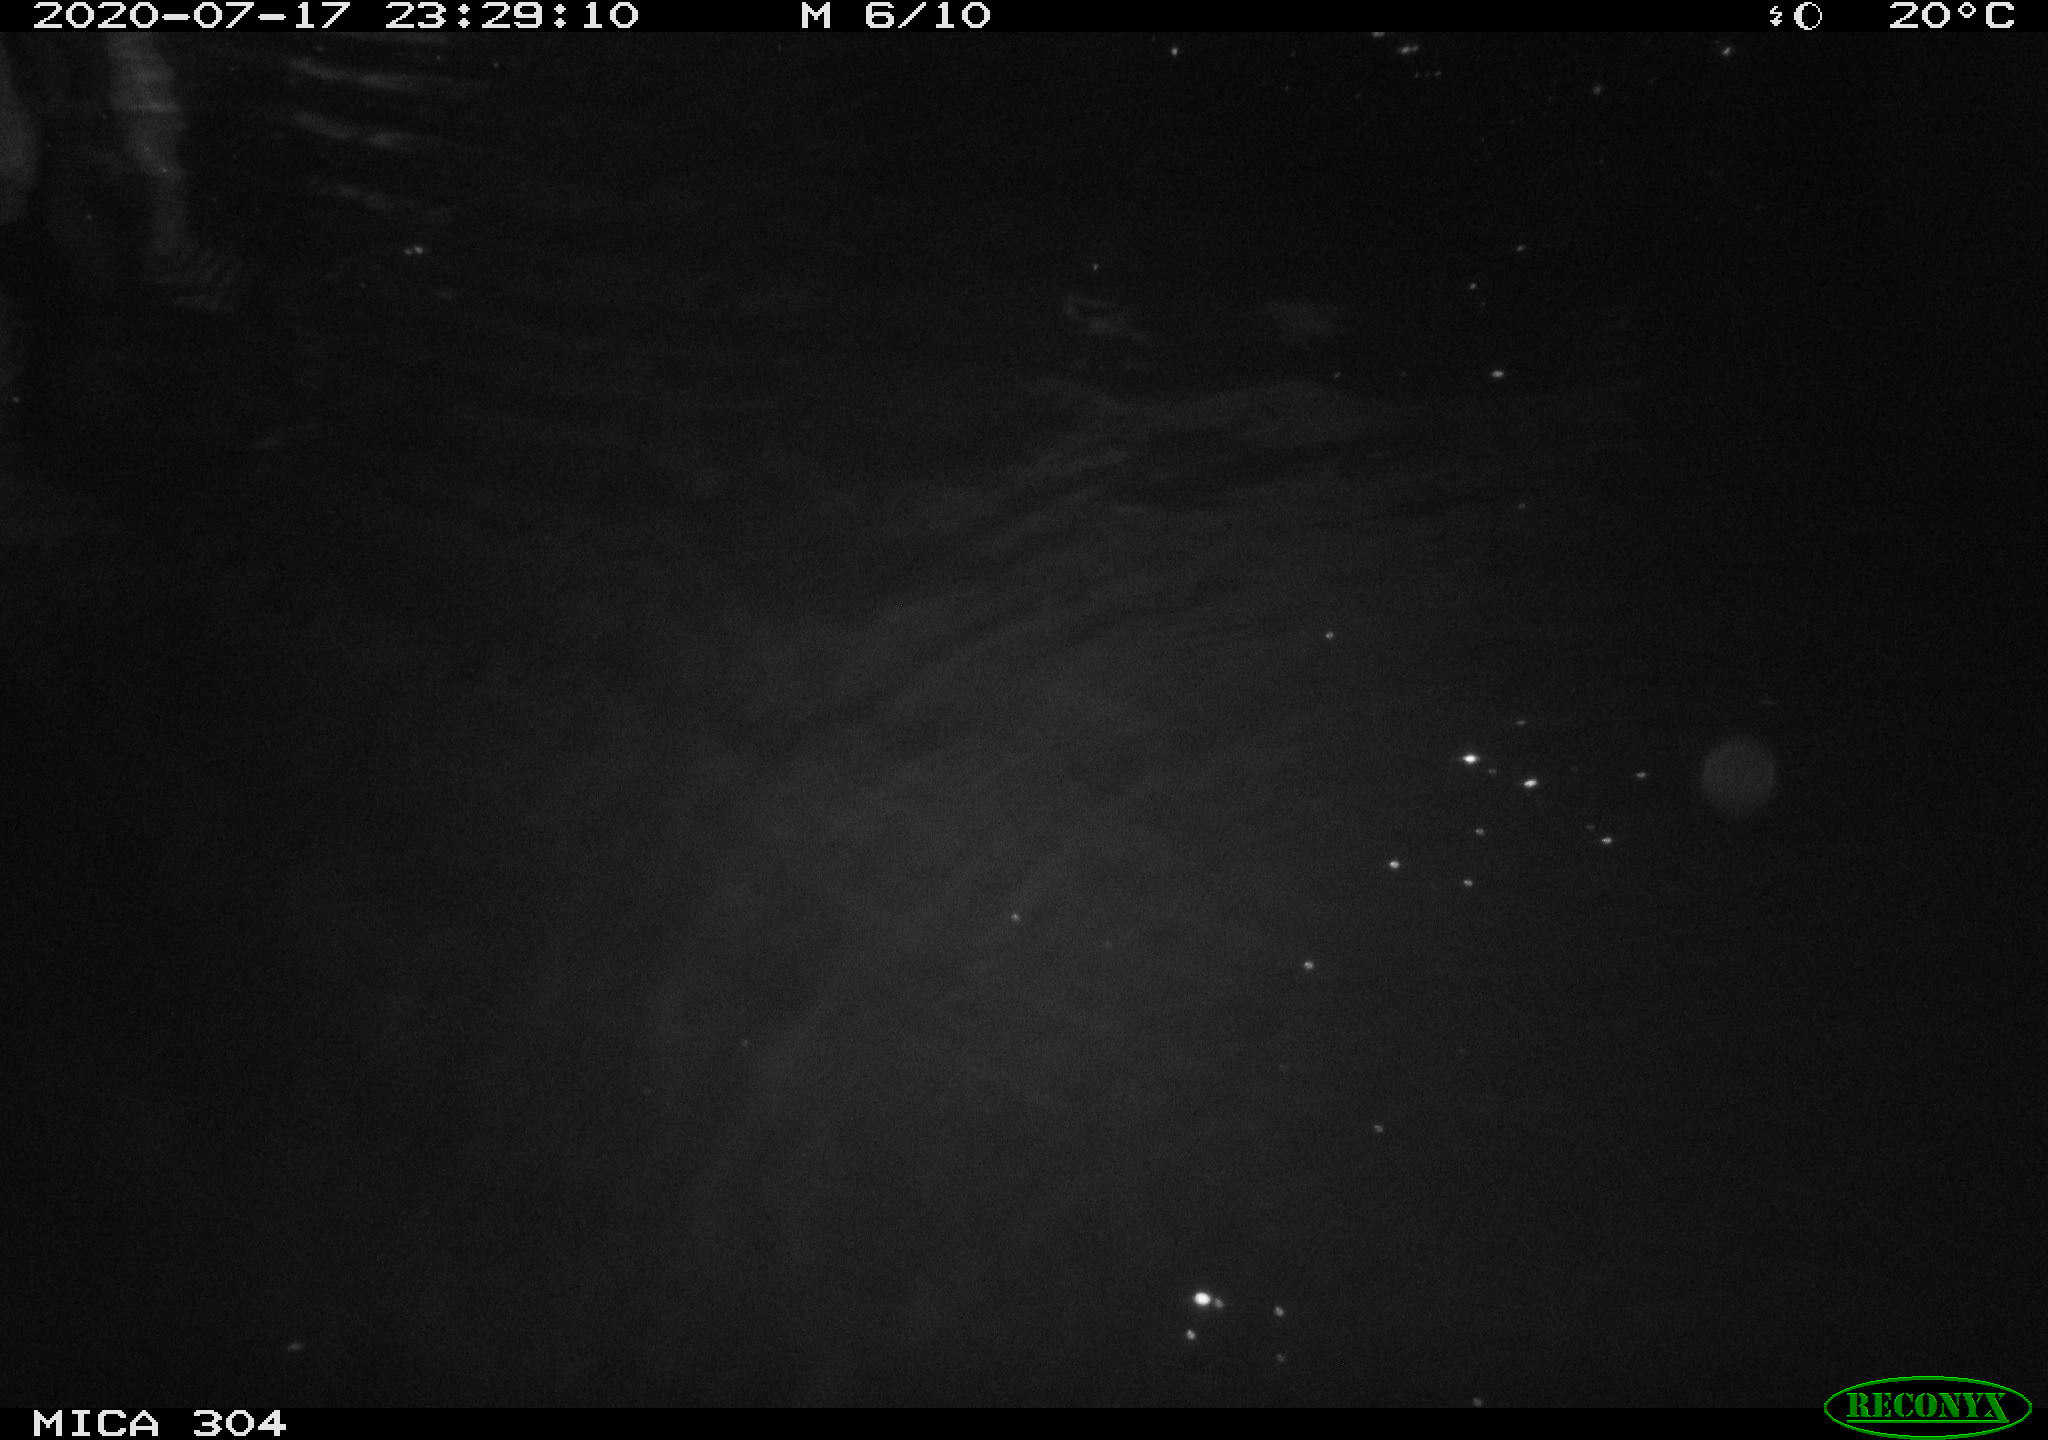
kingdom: Animalia
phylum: Chordata
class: Mammalia
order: Rodentia
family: Cricetidae
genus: Ondatra
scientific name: Ondatra zibethicus
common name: Muskrat
